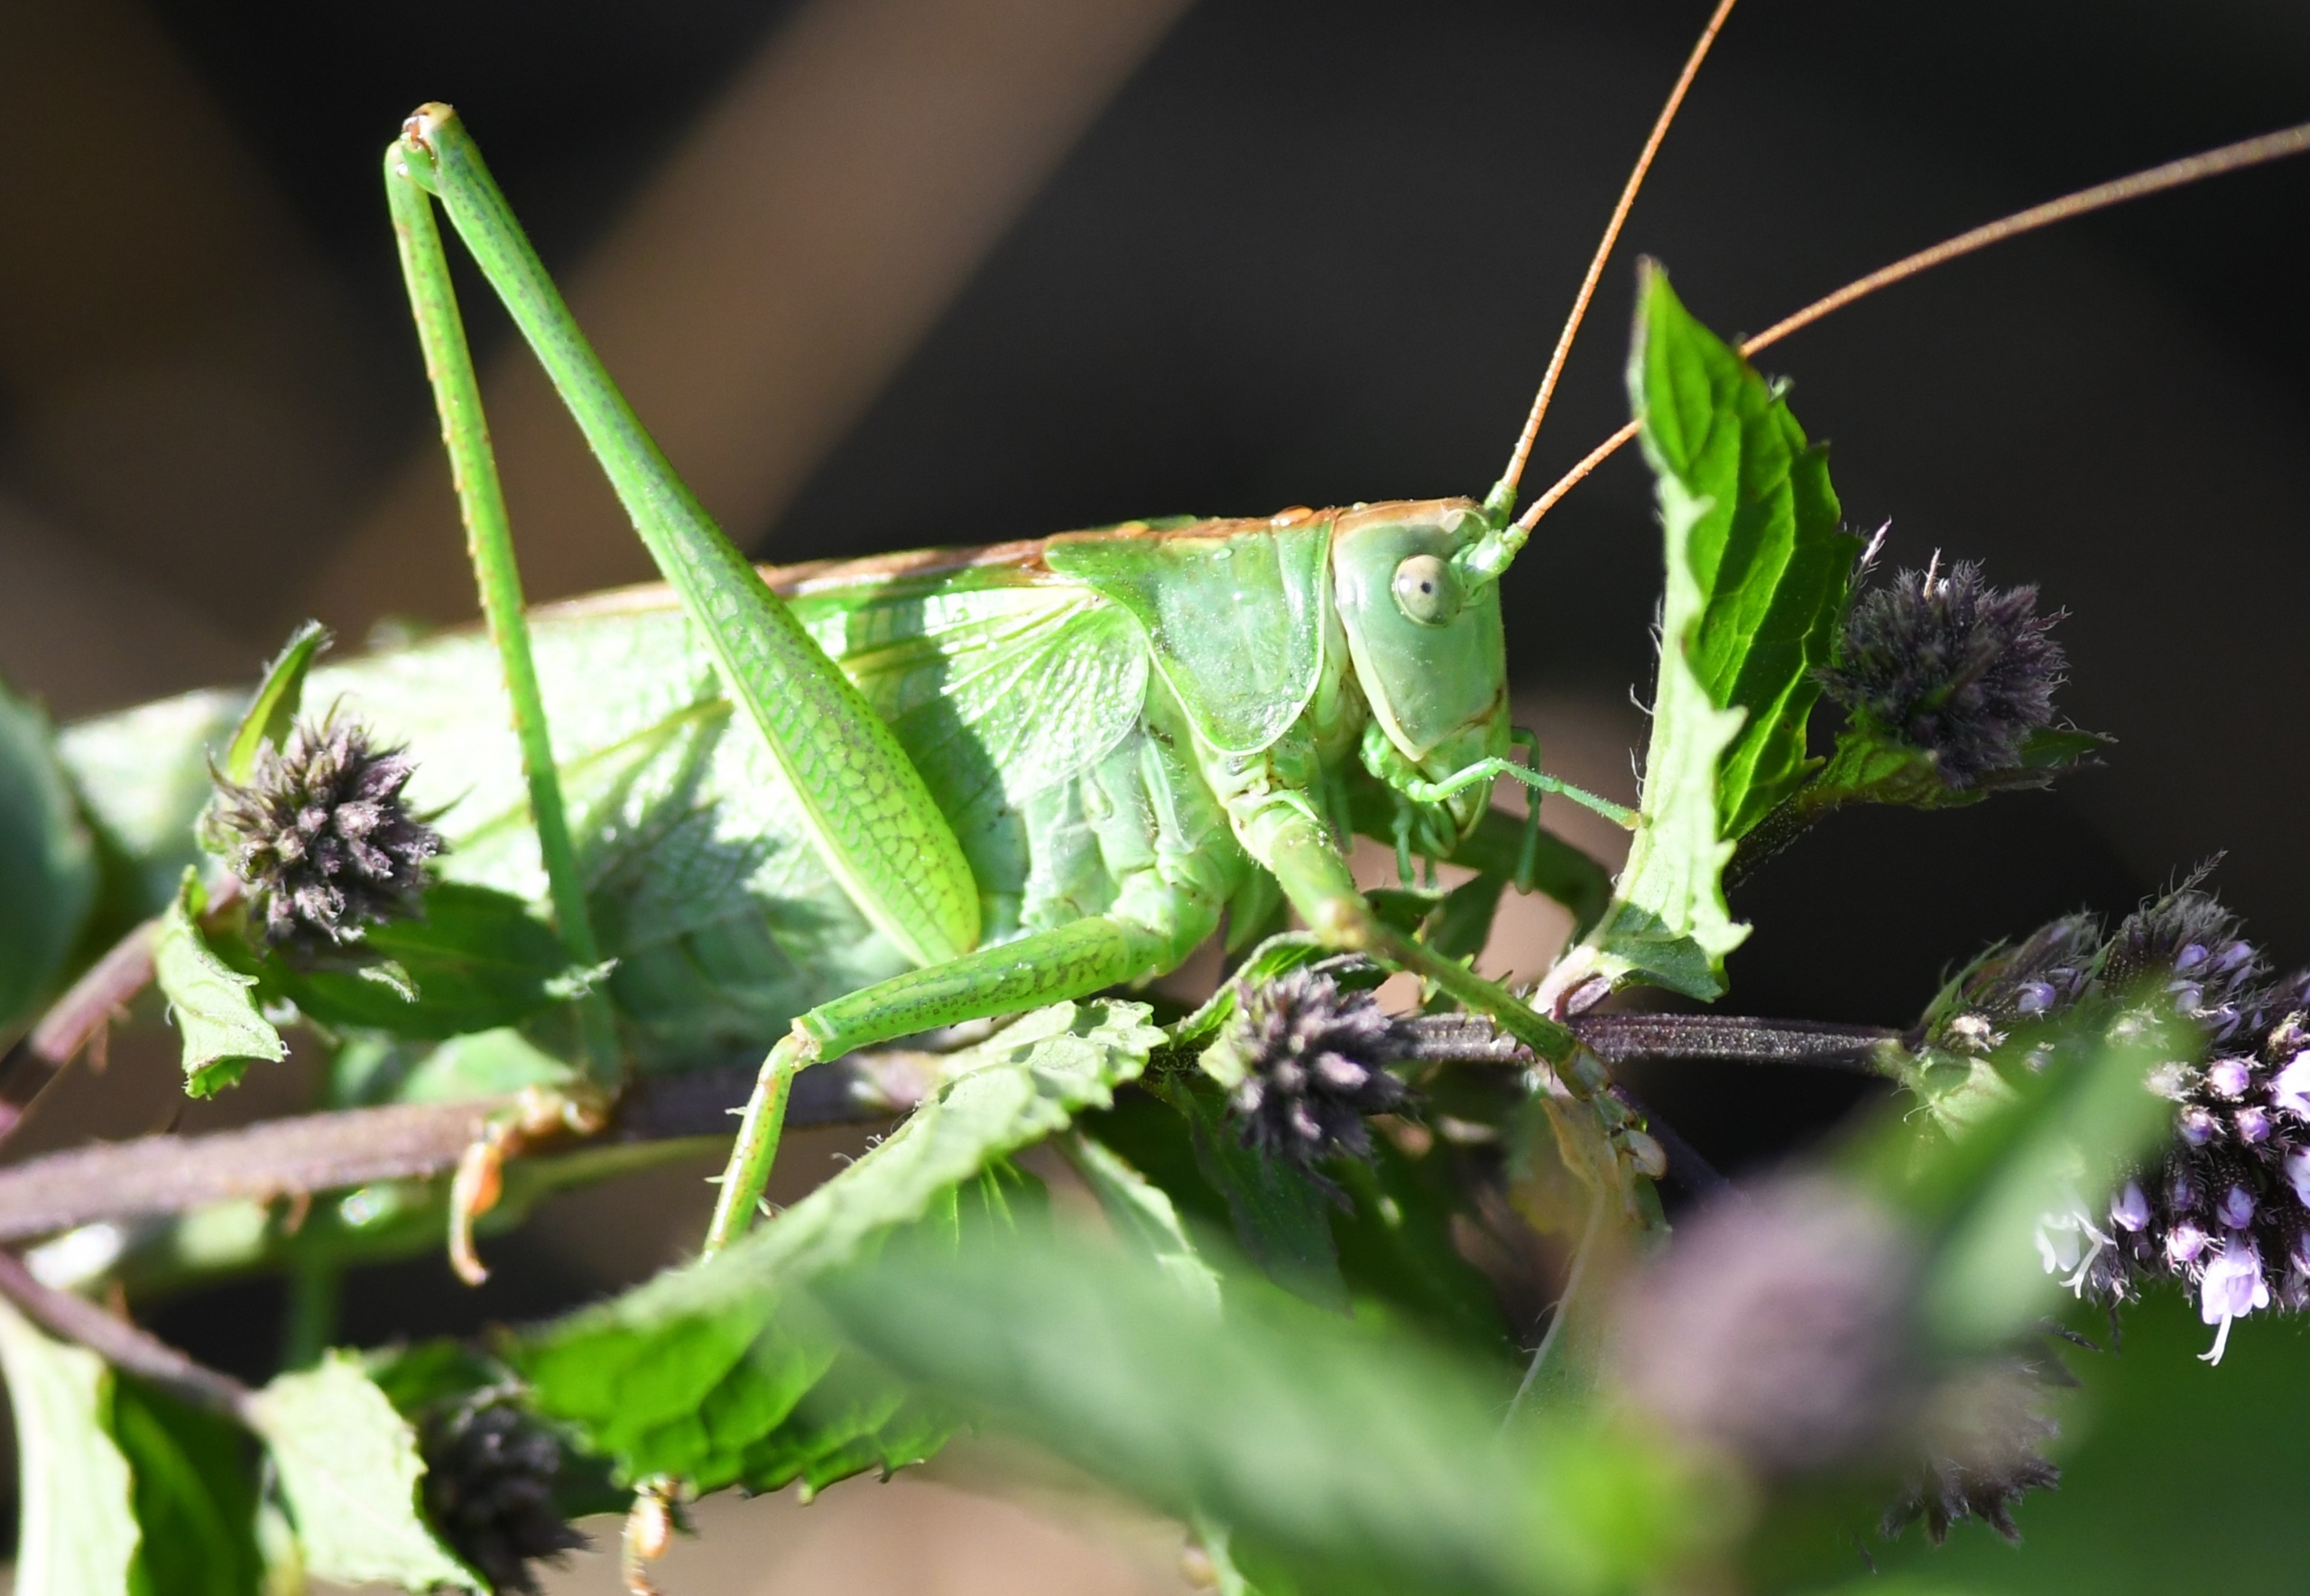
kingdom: Animalia
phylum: Arthropoda
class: Insecta
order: Orthoptera
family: Tettigoniidae
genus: Tettigonia
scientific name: Tettigonia viridissima
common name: Stor grøn løvgræshoppe
